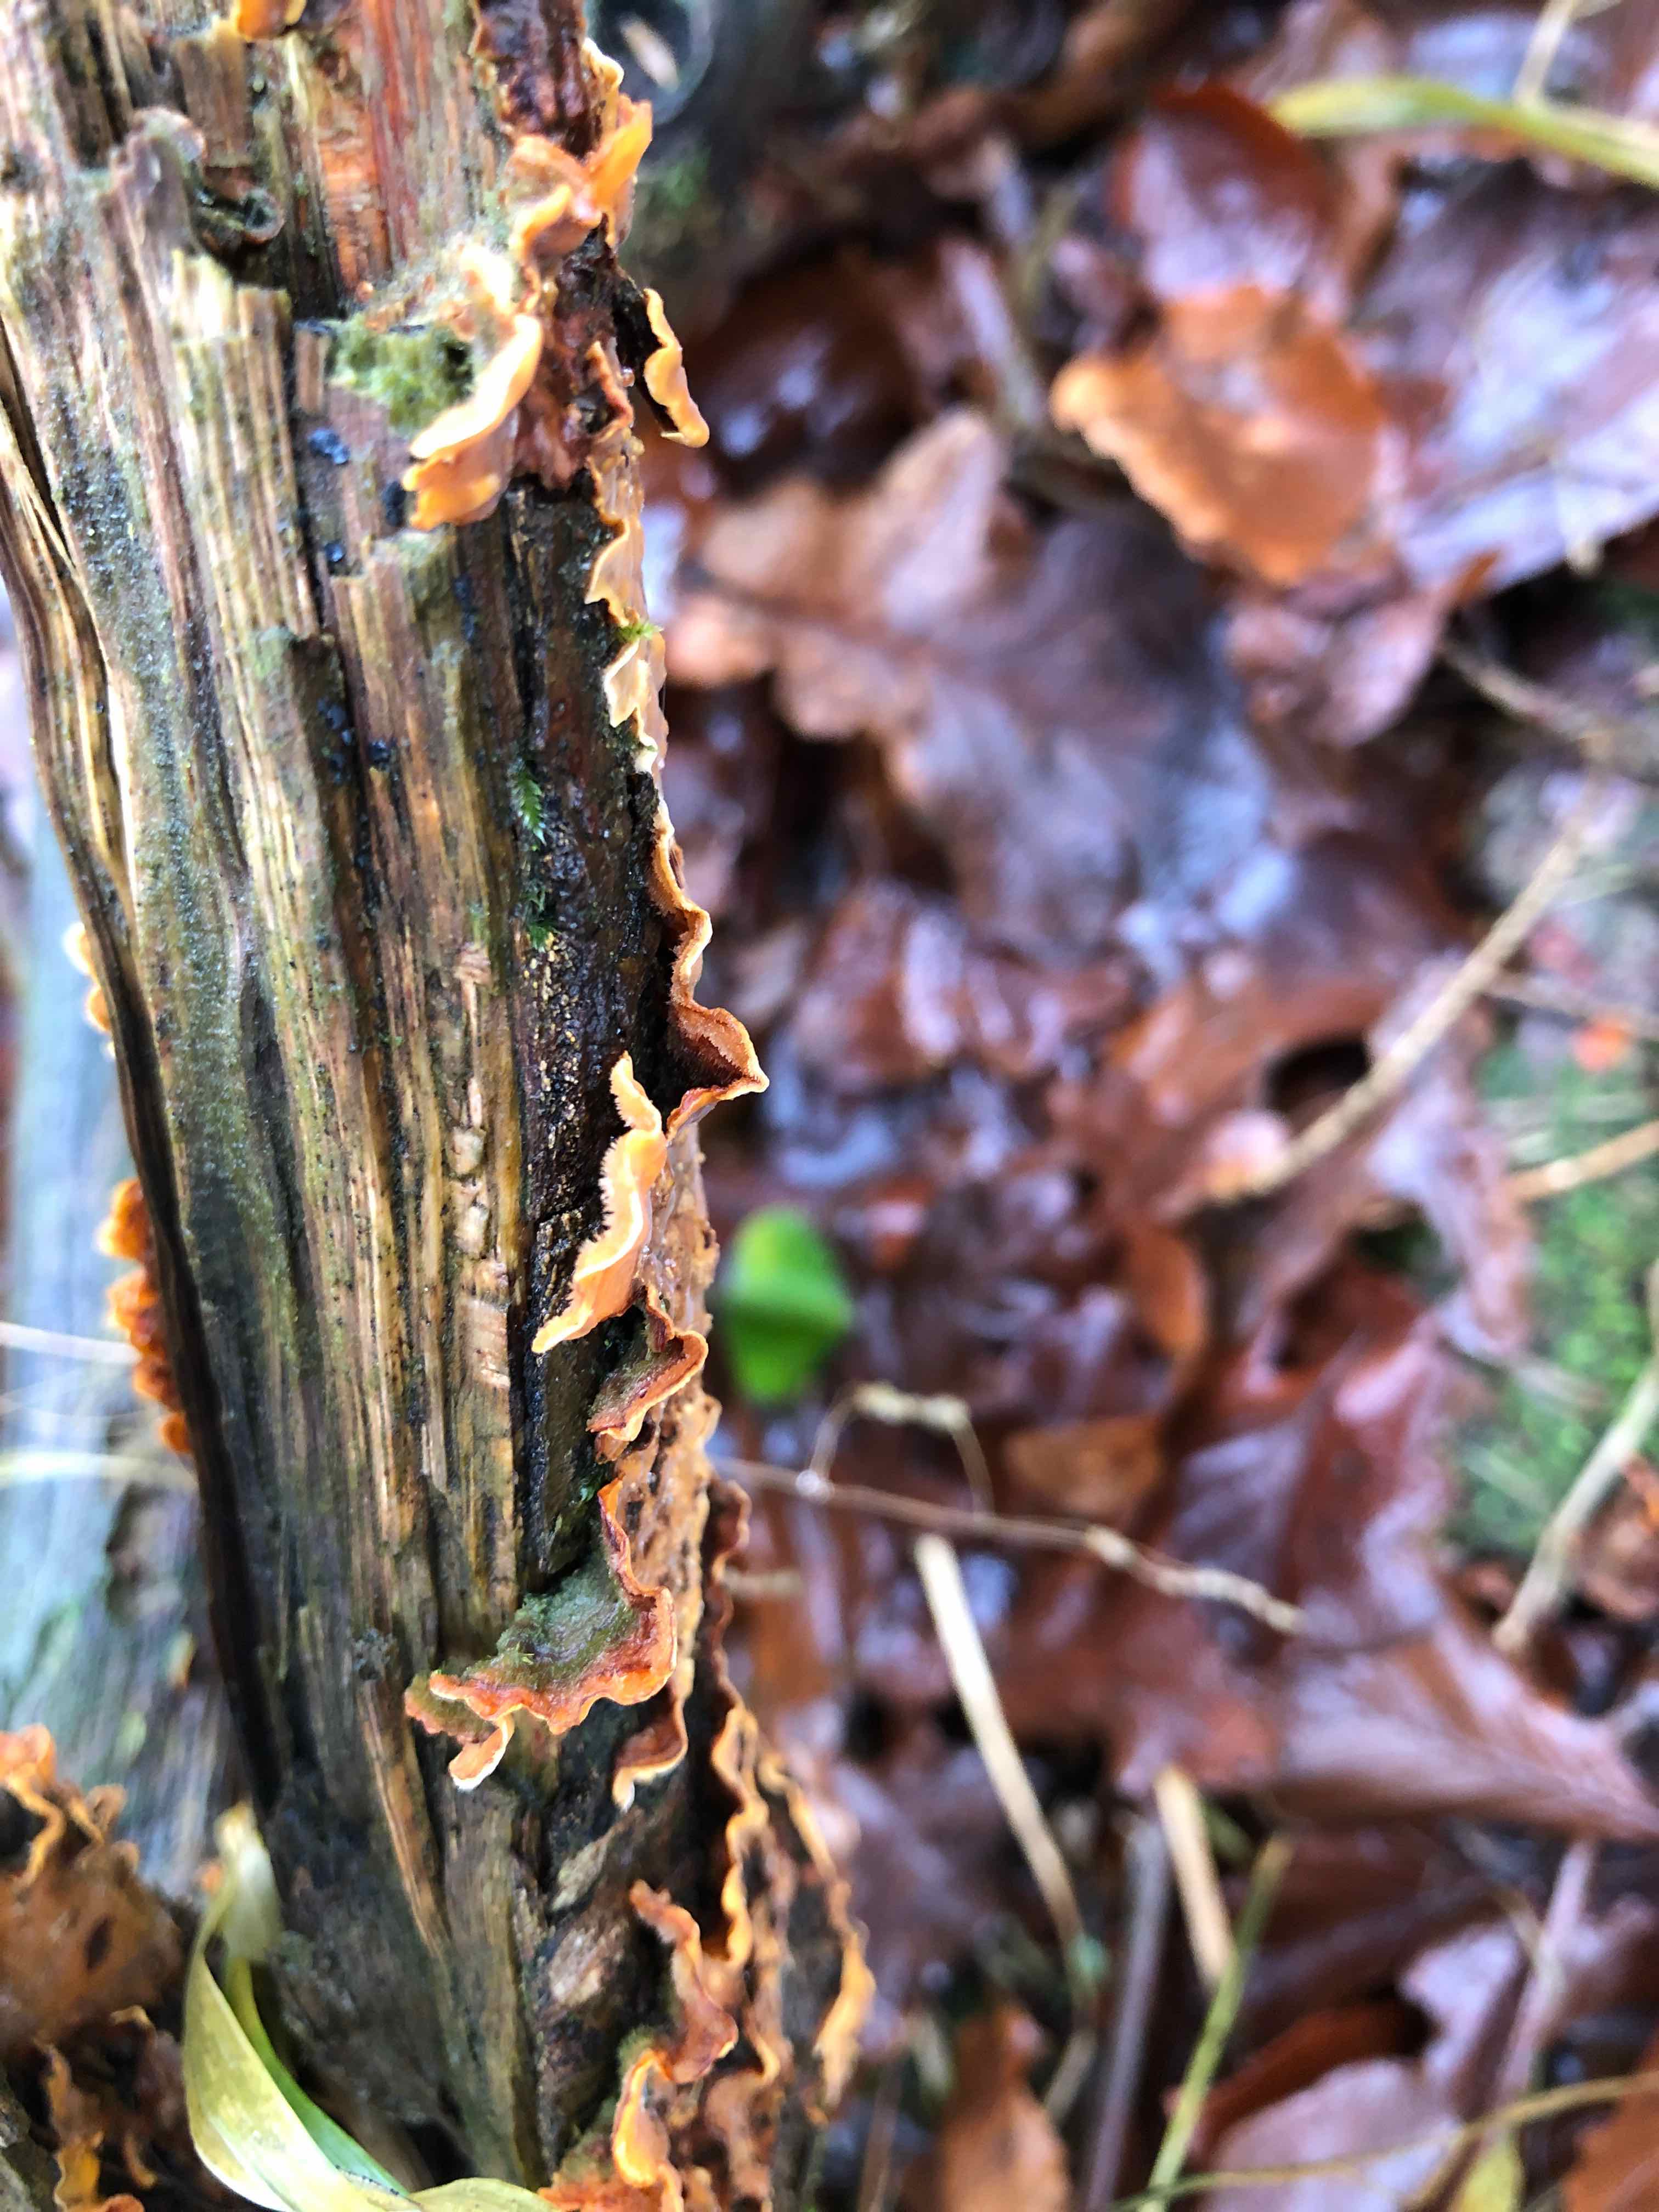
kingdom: Fungi
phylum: Basidiomycota
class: Agaricomycetes
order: Russulales
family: Stereaceae
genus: Stereum
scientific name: Stereum hirsutum
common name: håret lædersvamp
